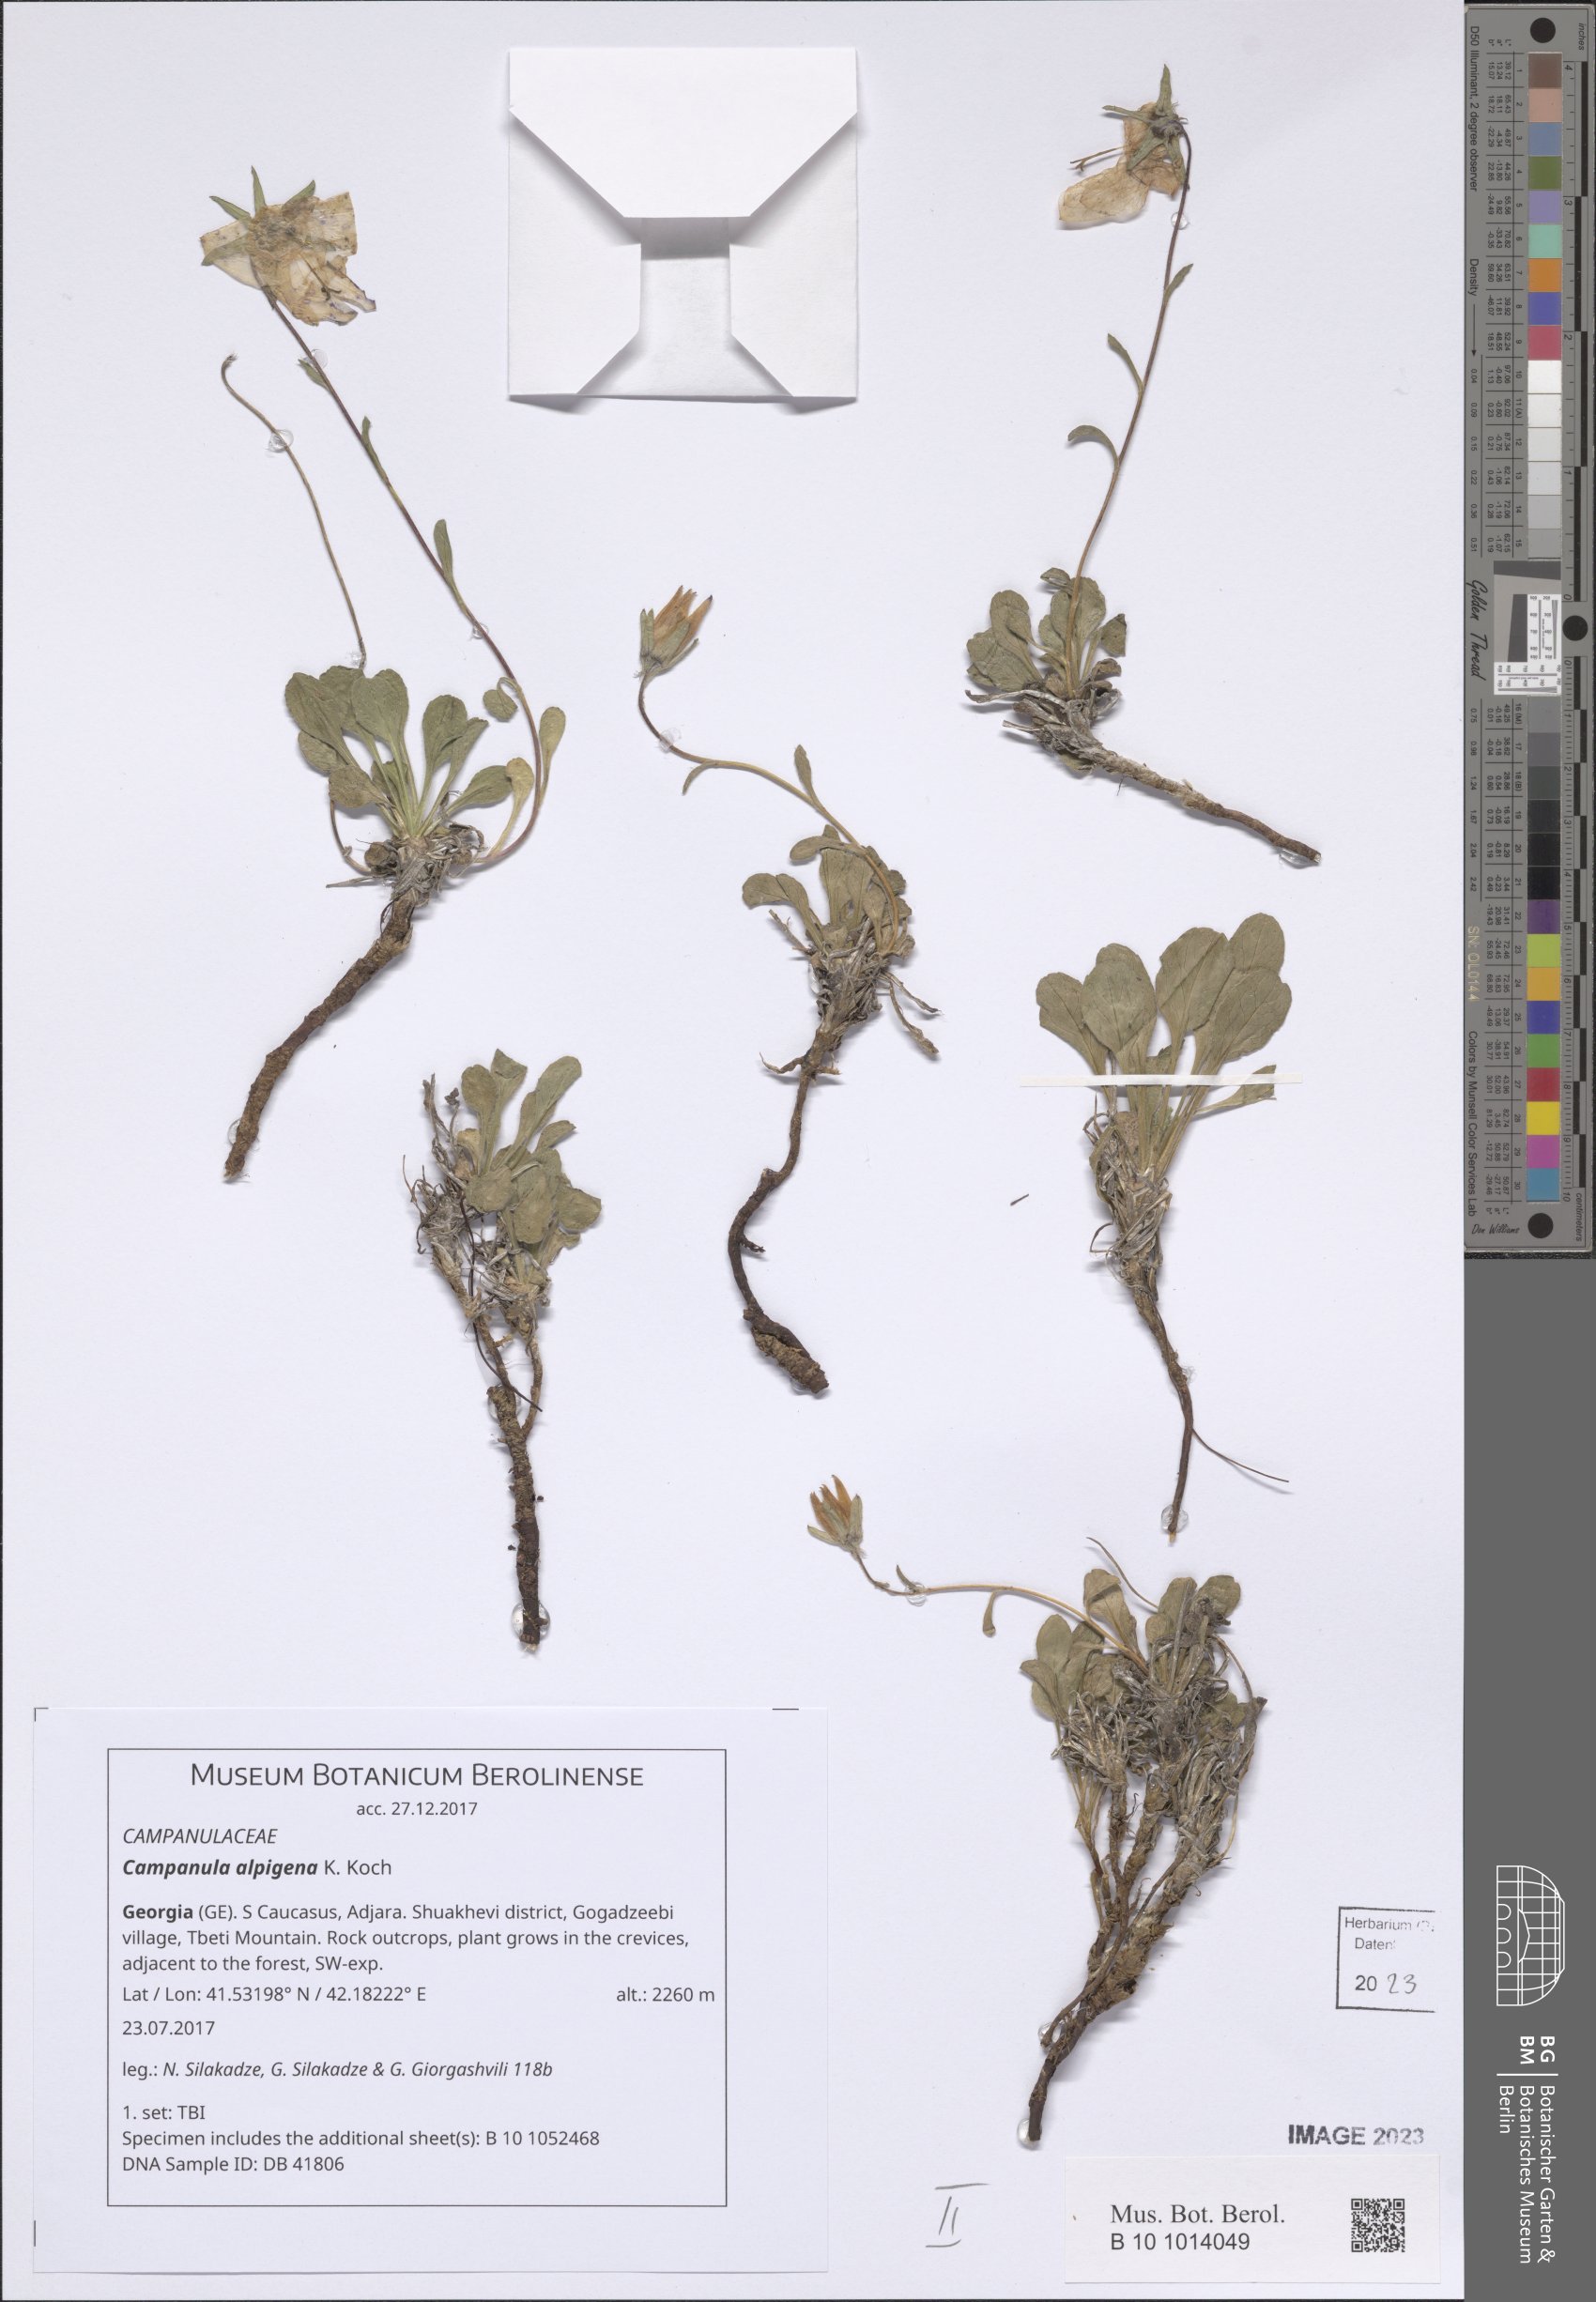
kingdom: Plantae
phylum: Tracheophyta
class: Magnoliopsida
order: Asterales
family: Campanulaceae
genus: Campanula
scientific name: Campanula saxifraga
